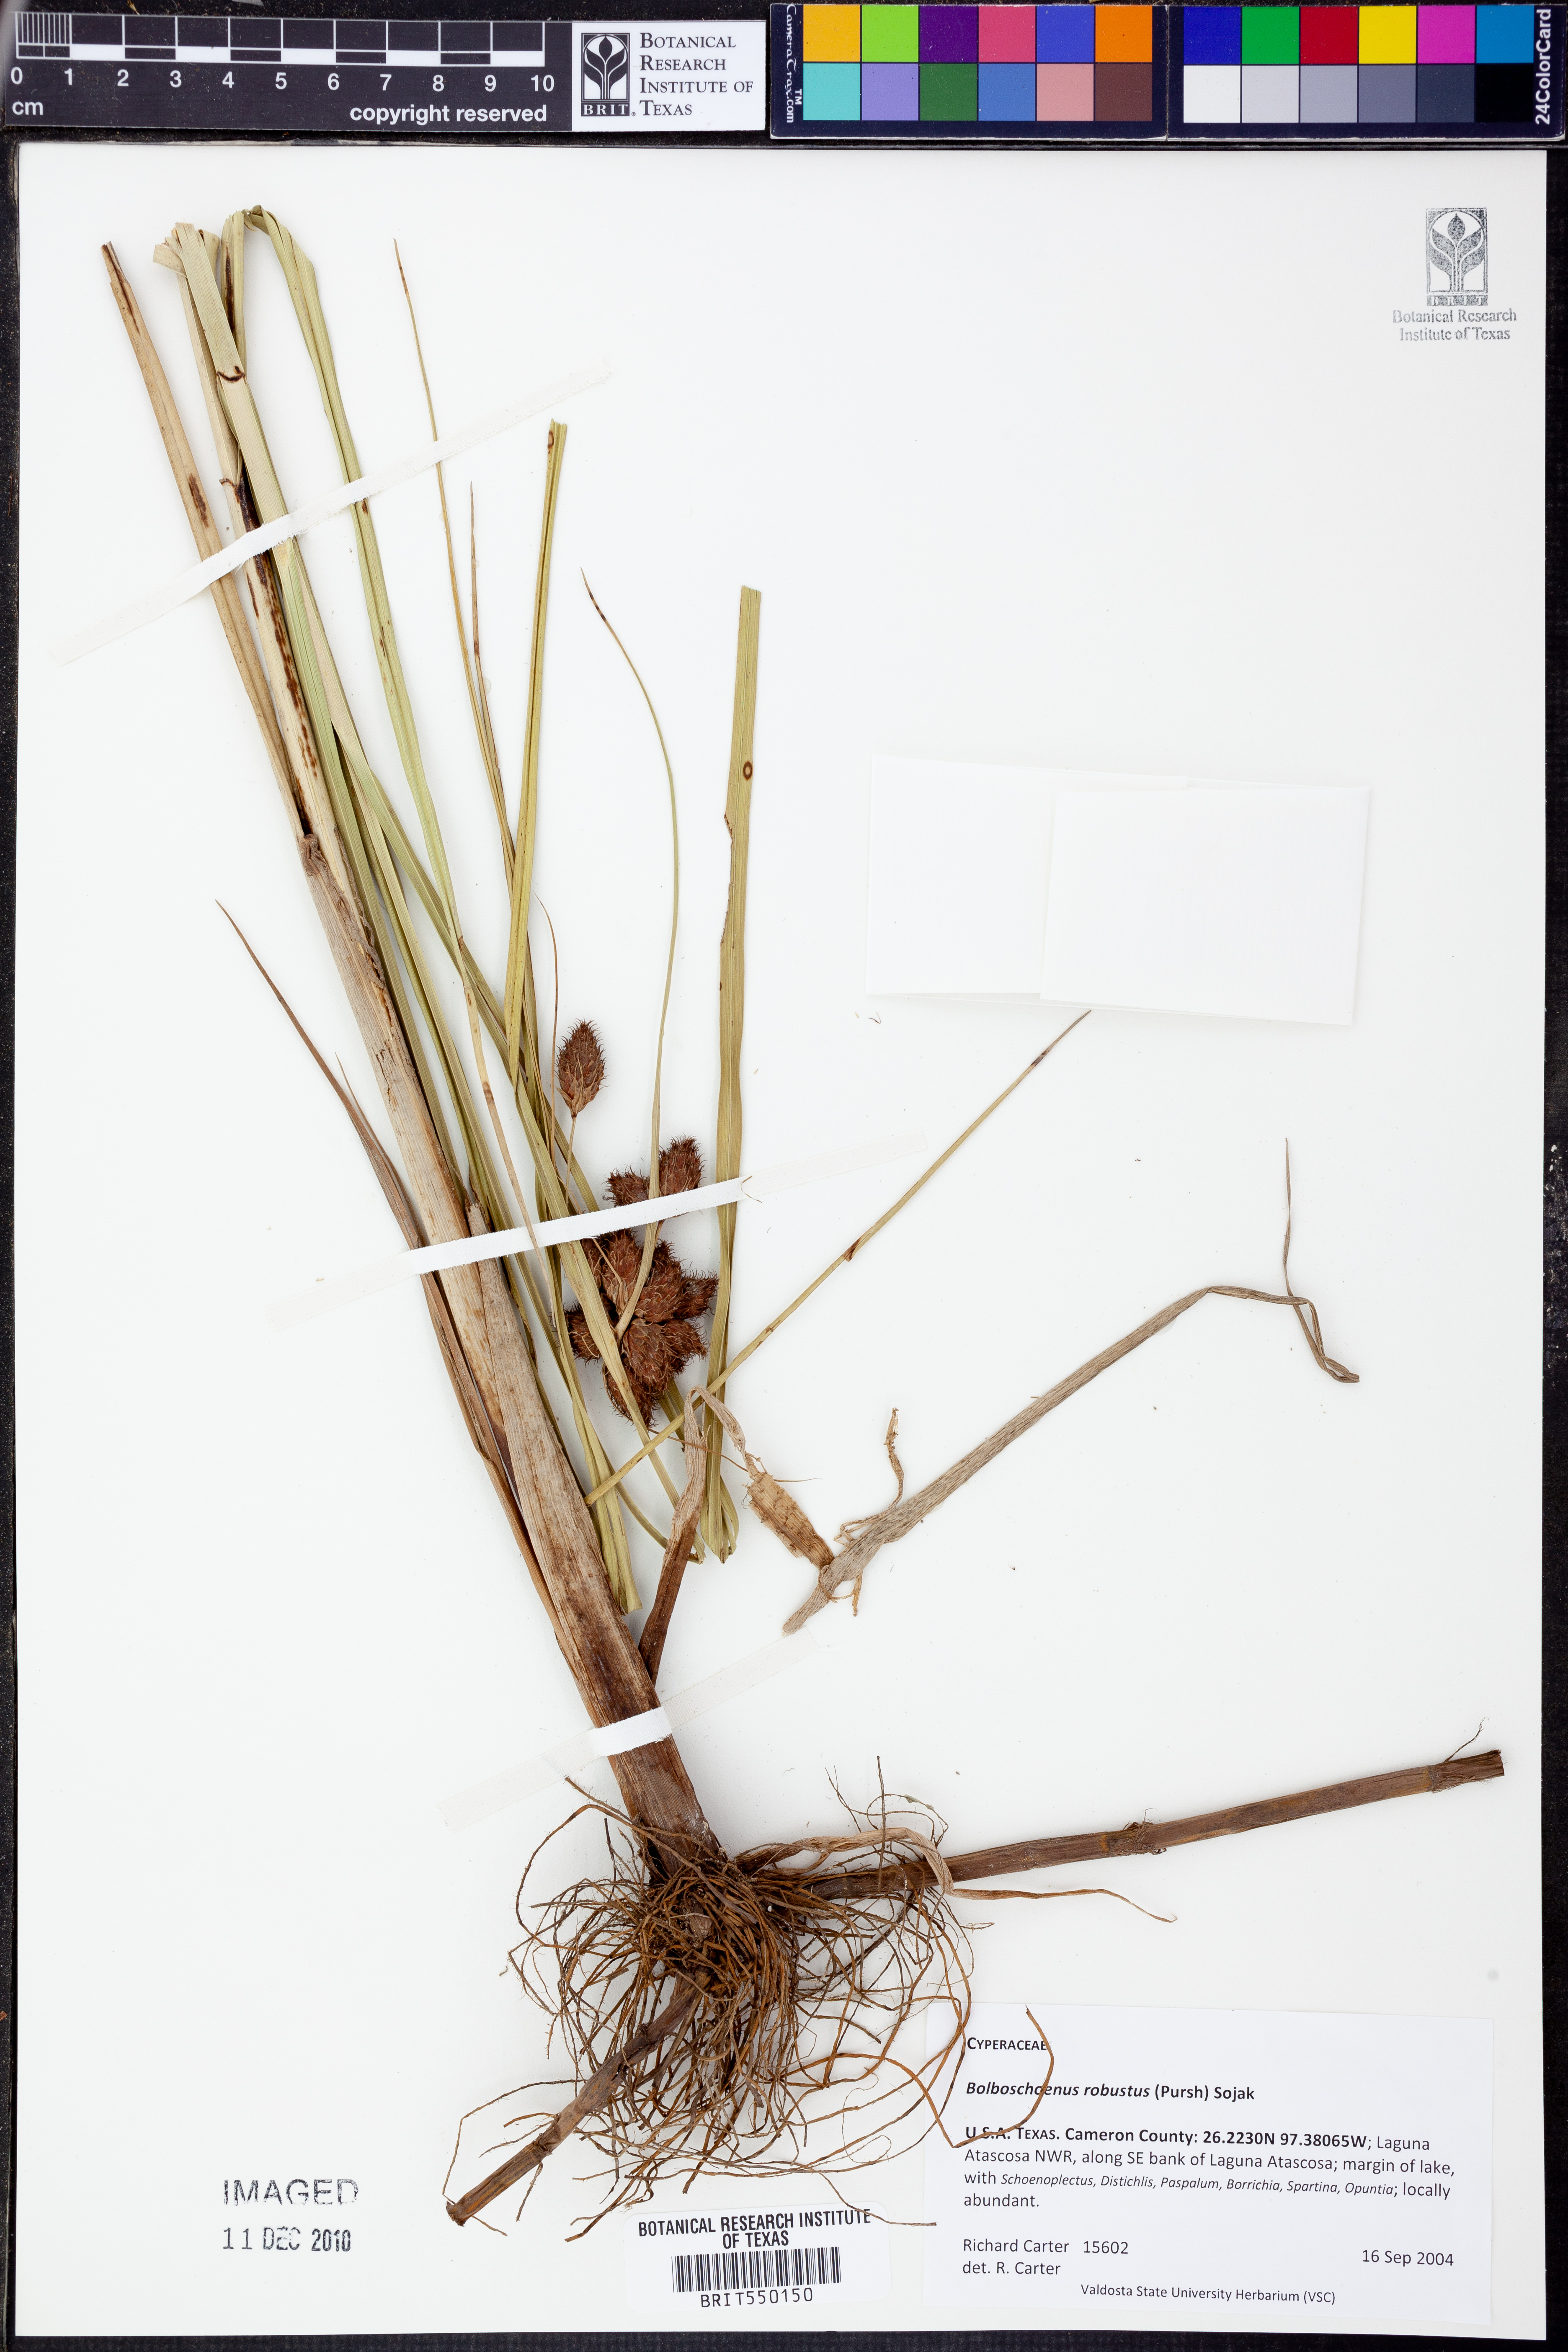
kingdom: Plantae
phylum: Tracheophyta
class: Liliopsida
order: Poales
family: Cyperaceae
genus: Bolboschoenus
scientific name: Bolboschoenus robustus
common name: Seacoast bulrush
